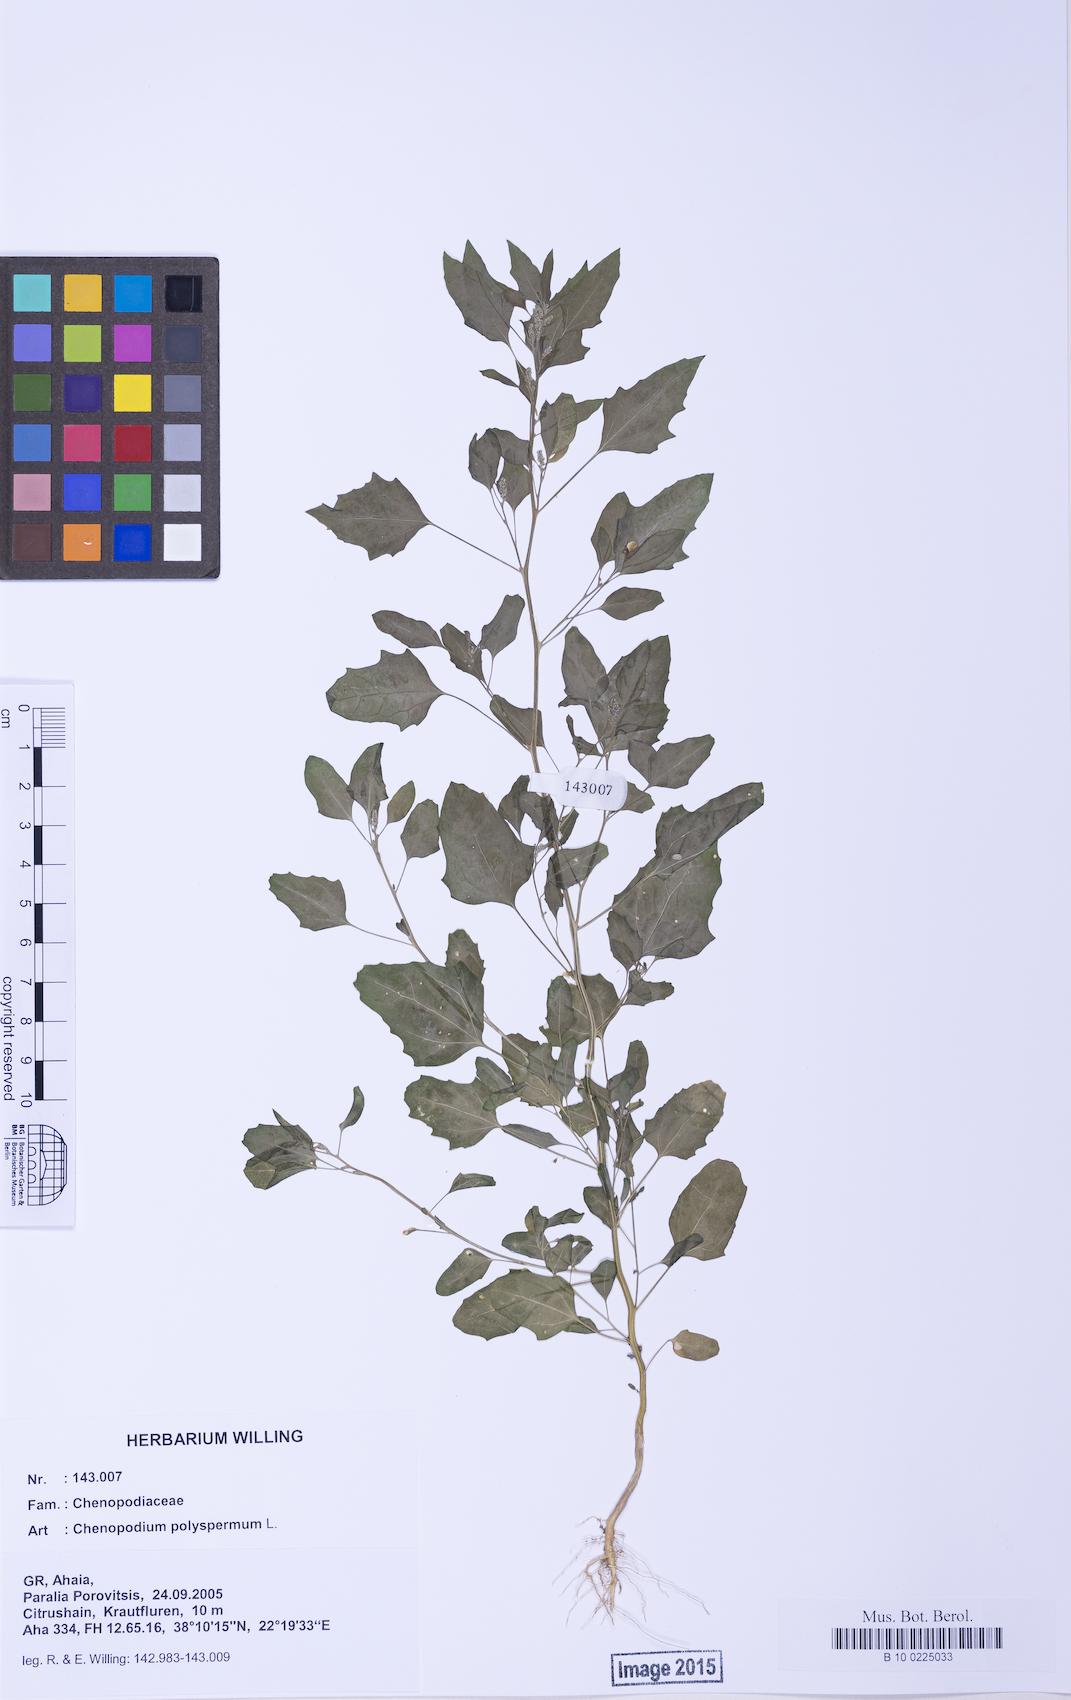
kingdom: Plantae
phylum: Tracheophyta
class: Magnoliopsida
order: Caryophyllales
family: Amaranthaceae
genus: Chenopodium
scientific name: Chenopodium album
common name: Fat-hen
